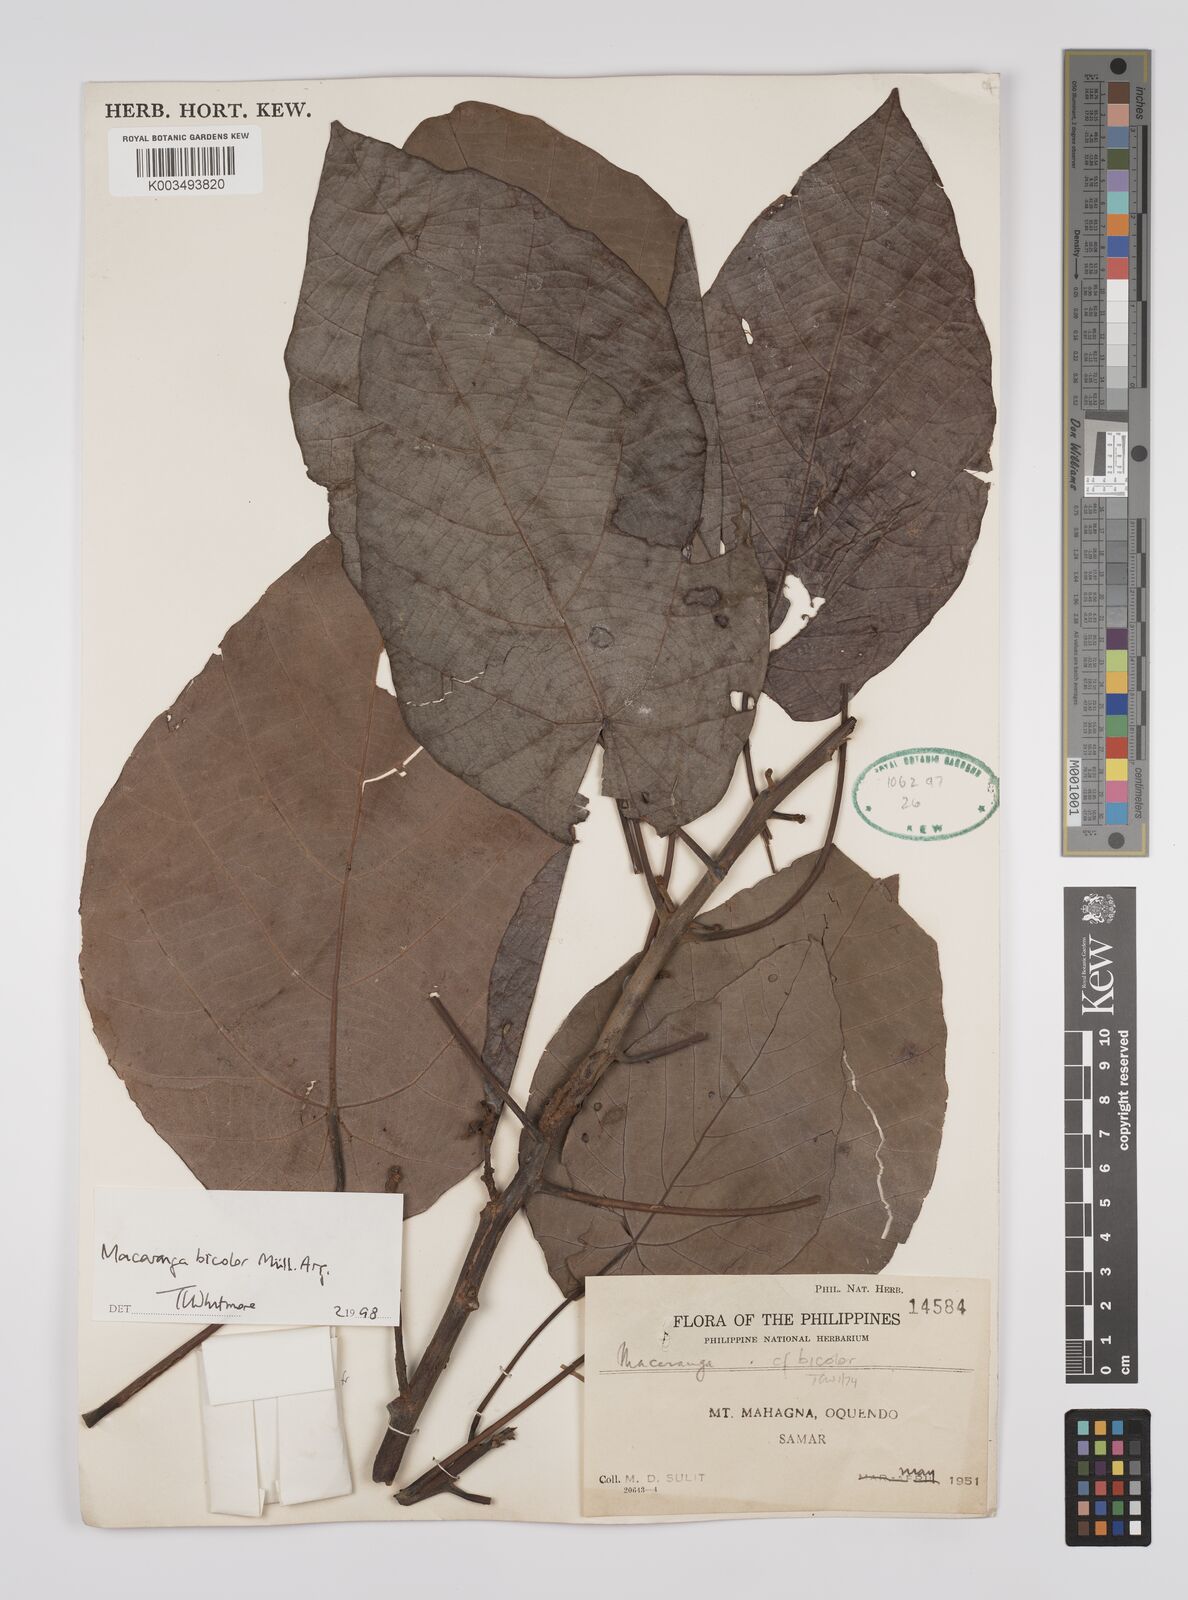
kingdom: Plantae
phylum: Tracheophyta
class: Magnoliopsida
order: Malpighiales
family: Euphorbiaceae
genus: Macaranga
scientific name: Macaranga bicolor
